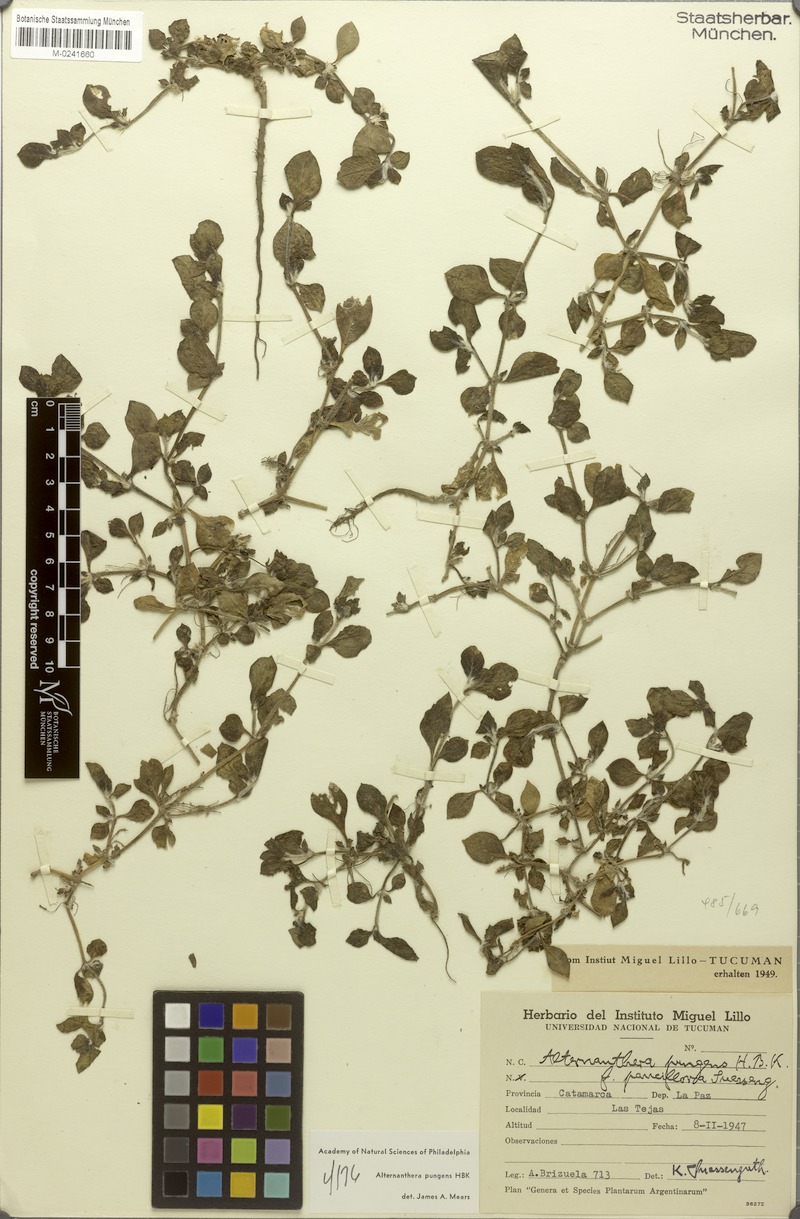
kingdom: Plantae
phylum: Tracheophyta
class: Magnoliopsida
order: Caryophyllales
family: Amaranthaceae
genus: Alternanthera
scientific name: Alternanthera pungens
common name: Khakiweed
